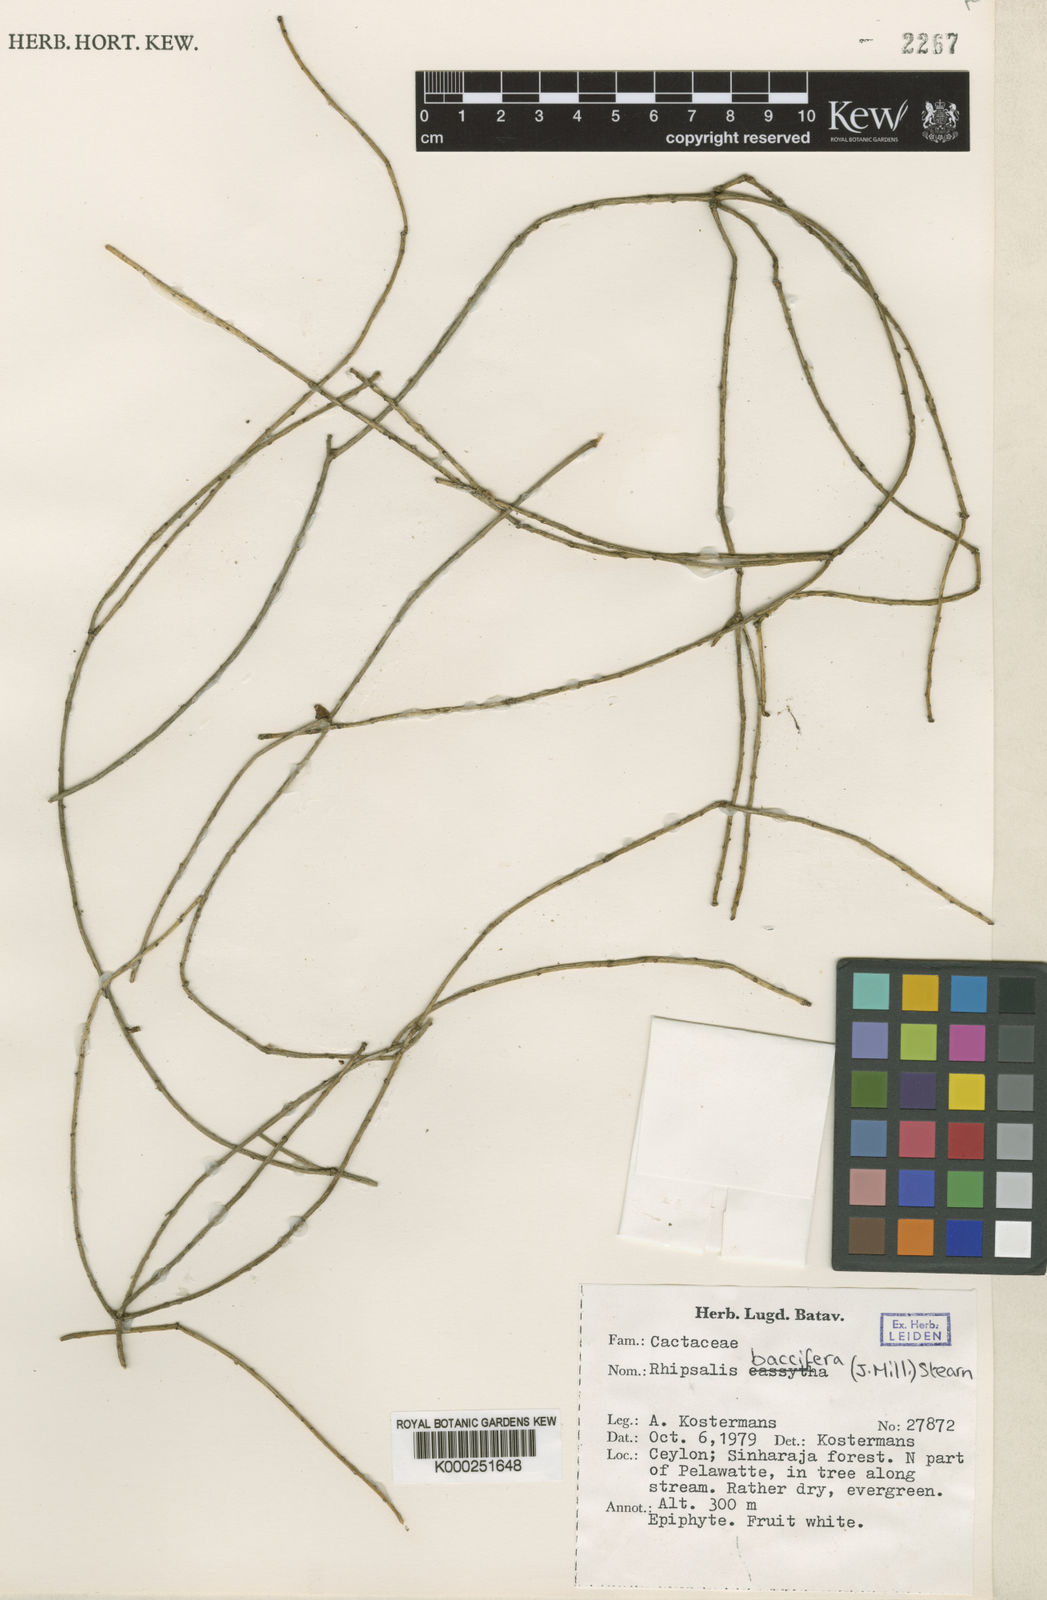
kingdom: Plantae
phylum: Tracheophyta
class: Magnoliopsida
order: Caryophyllales
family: Cactaceae
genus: Rhipsalis
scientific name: Rhipsalis baccifera
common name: Mistletoe cactus
